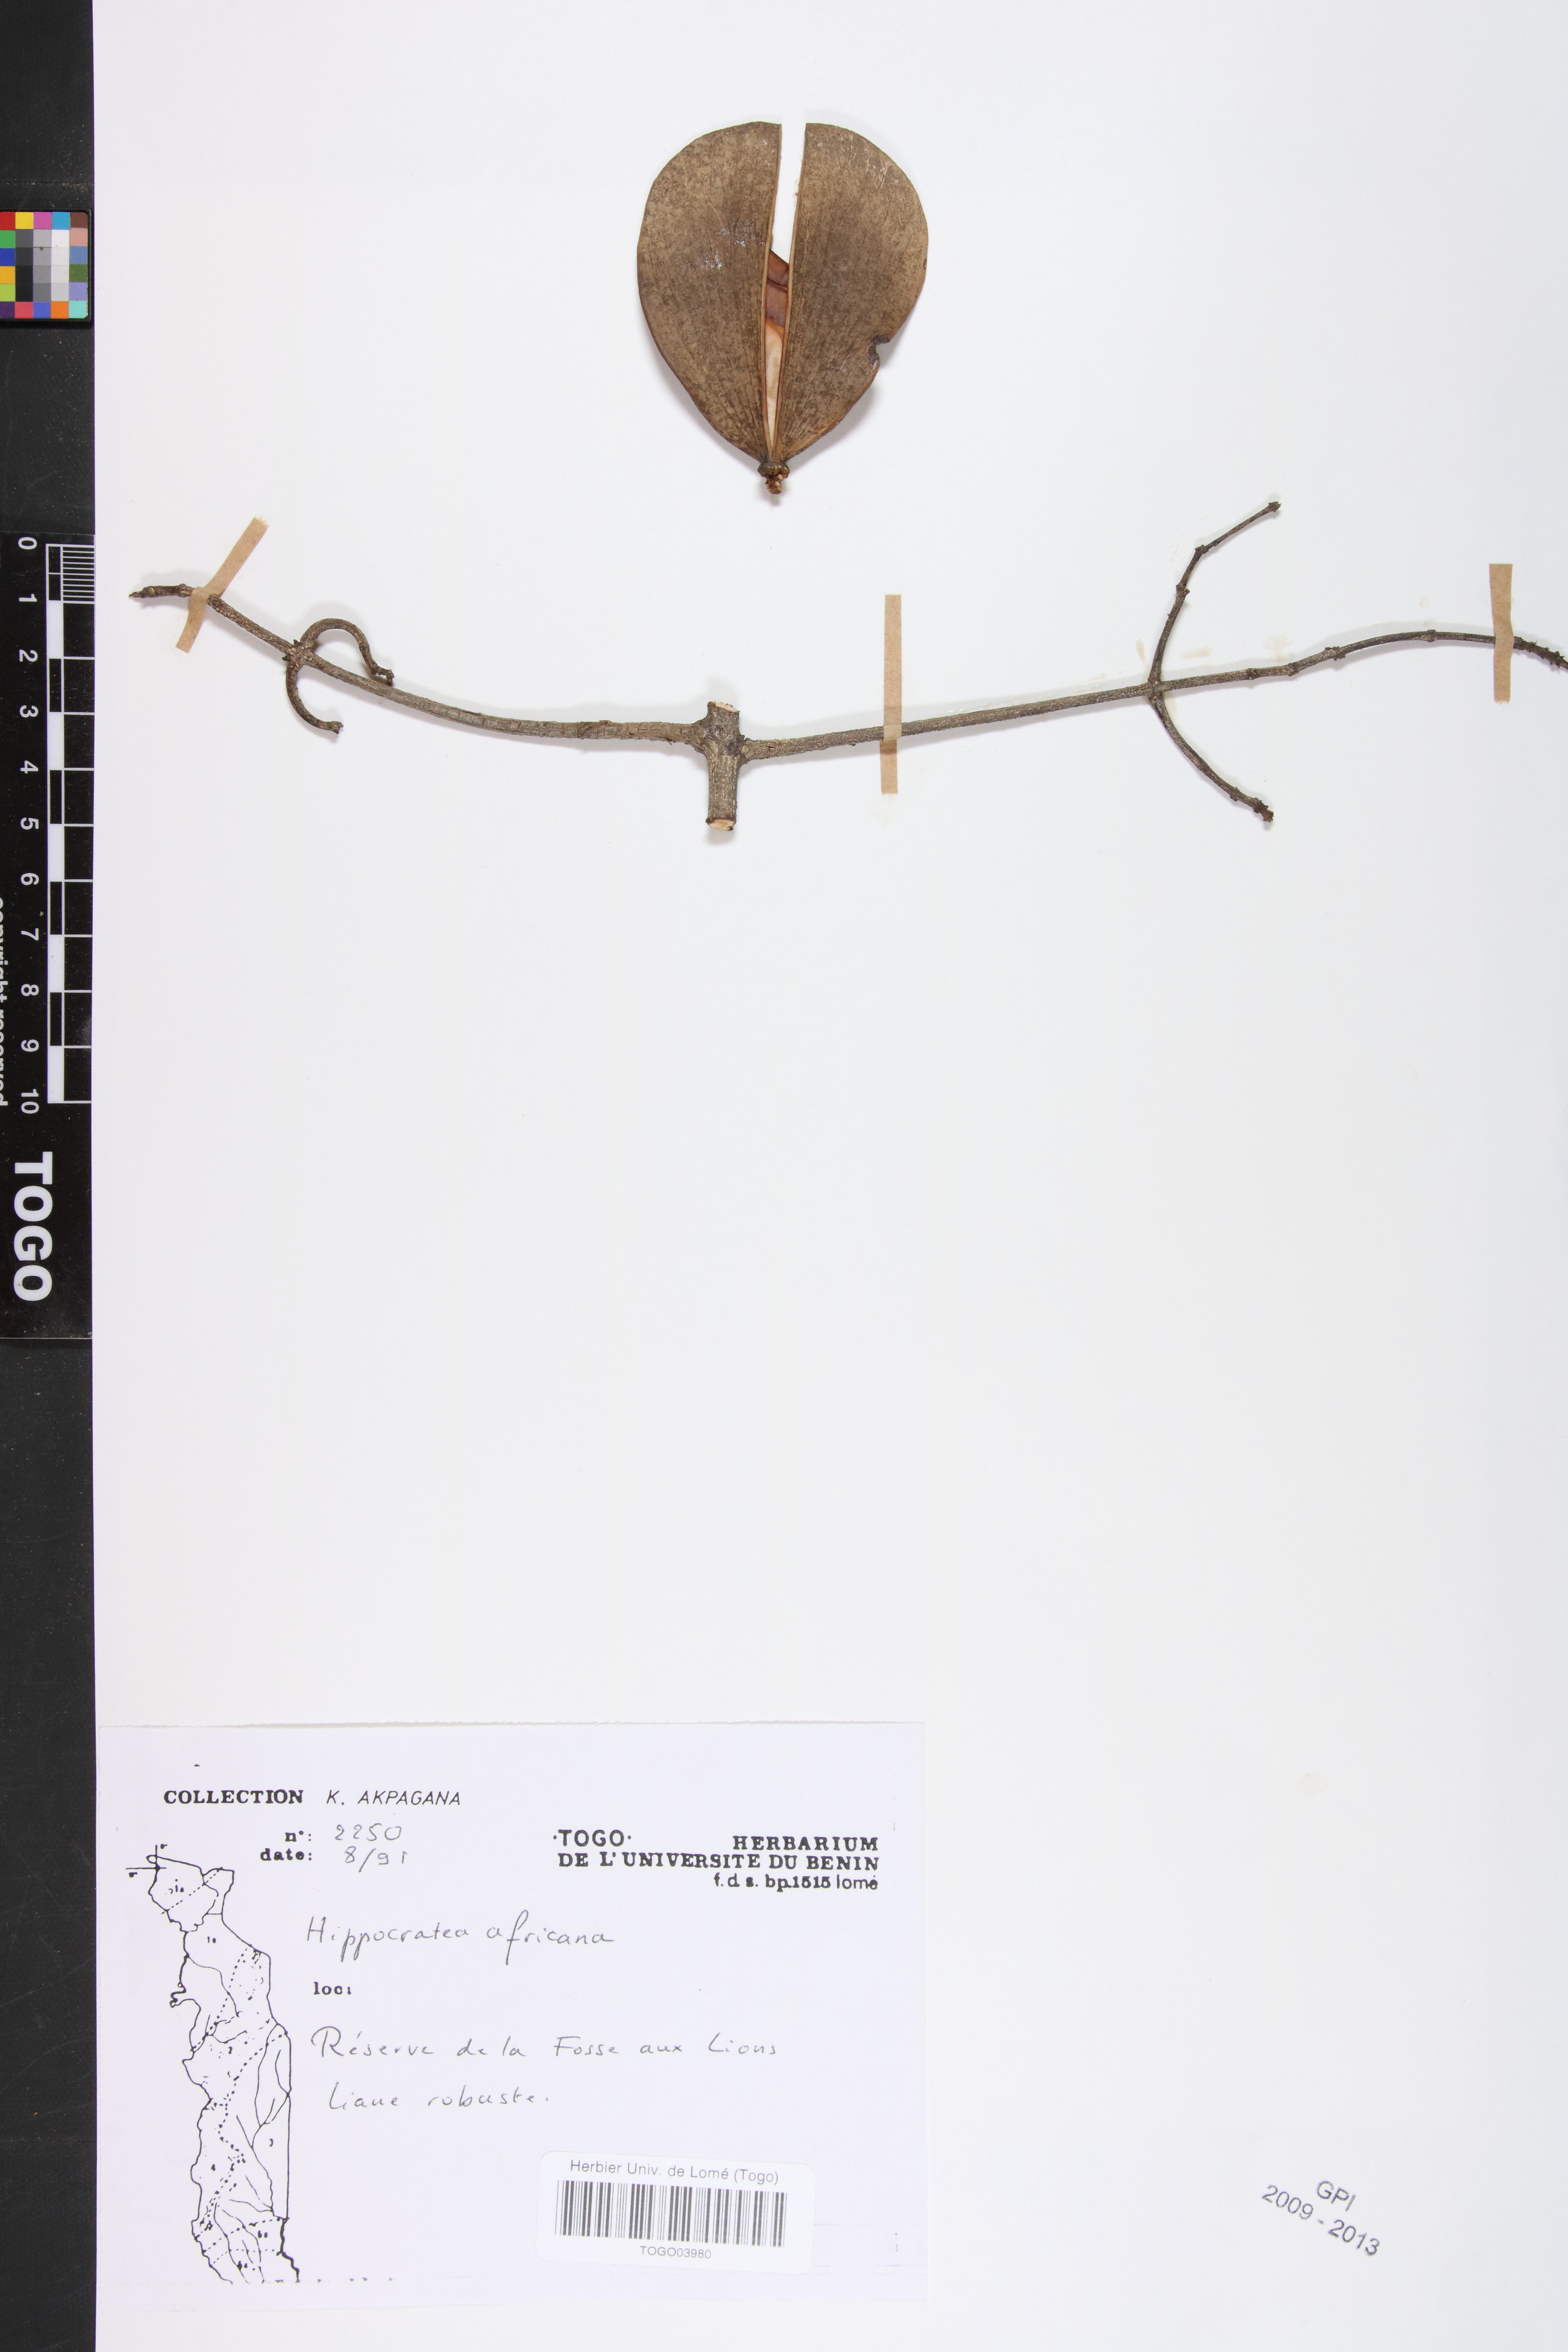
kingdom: Plantae
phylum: Tracheophyta
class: Magnoliopsida
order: Celastrales
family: Celastraceae
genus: Loeseneriella
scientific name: Loeseneriella africana
